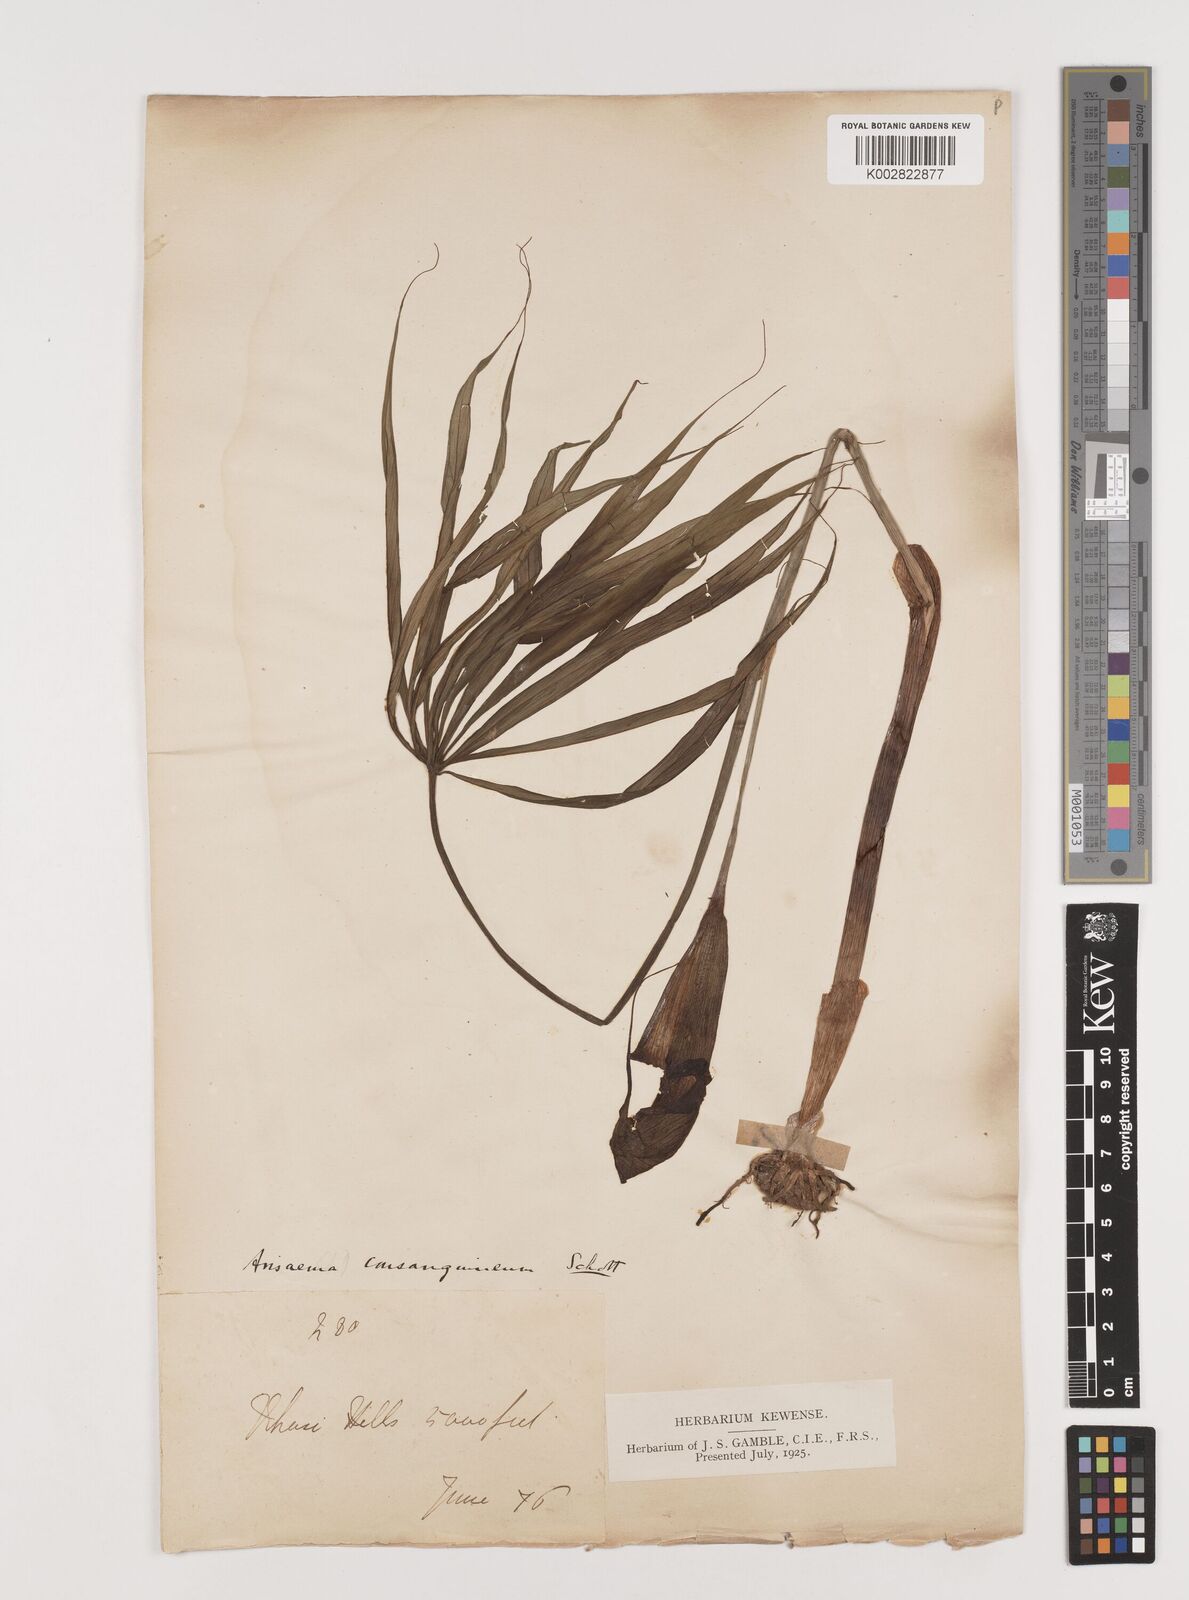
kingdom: Plantae
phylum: Tracheophyta
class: Liliopsida
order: Alismatales
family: Araceae
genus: Arisaema
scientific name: Arisaema erubescens
